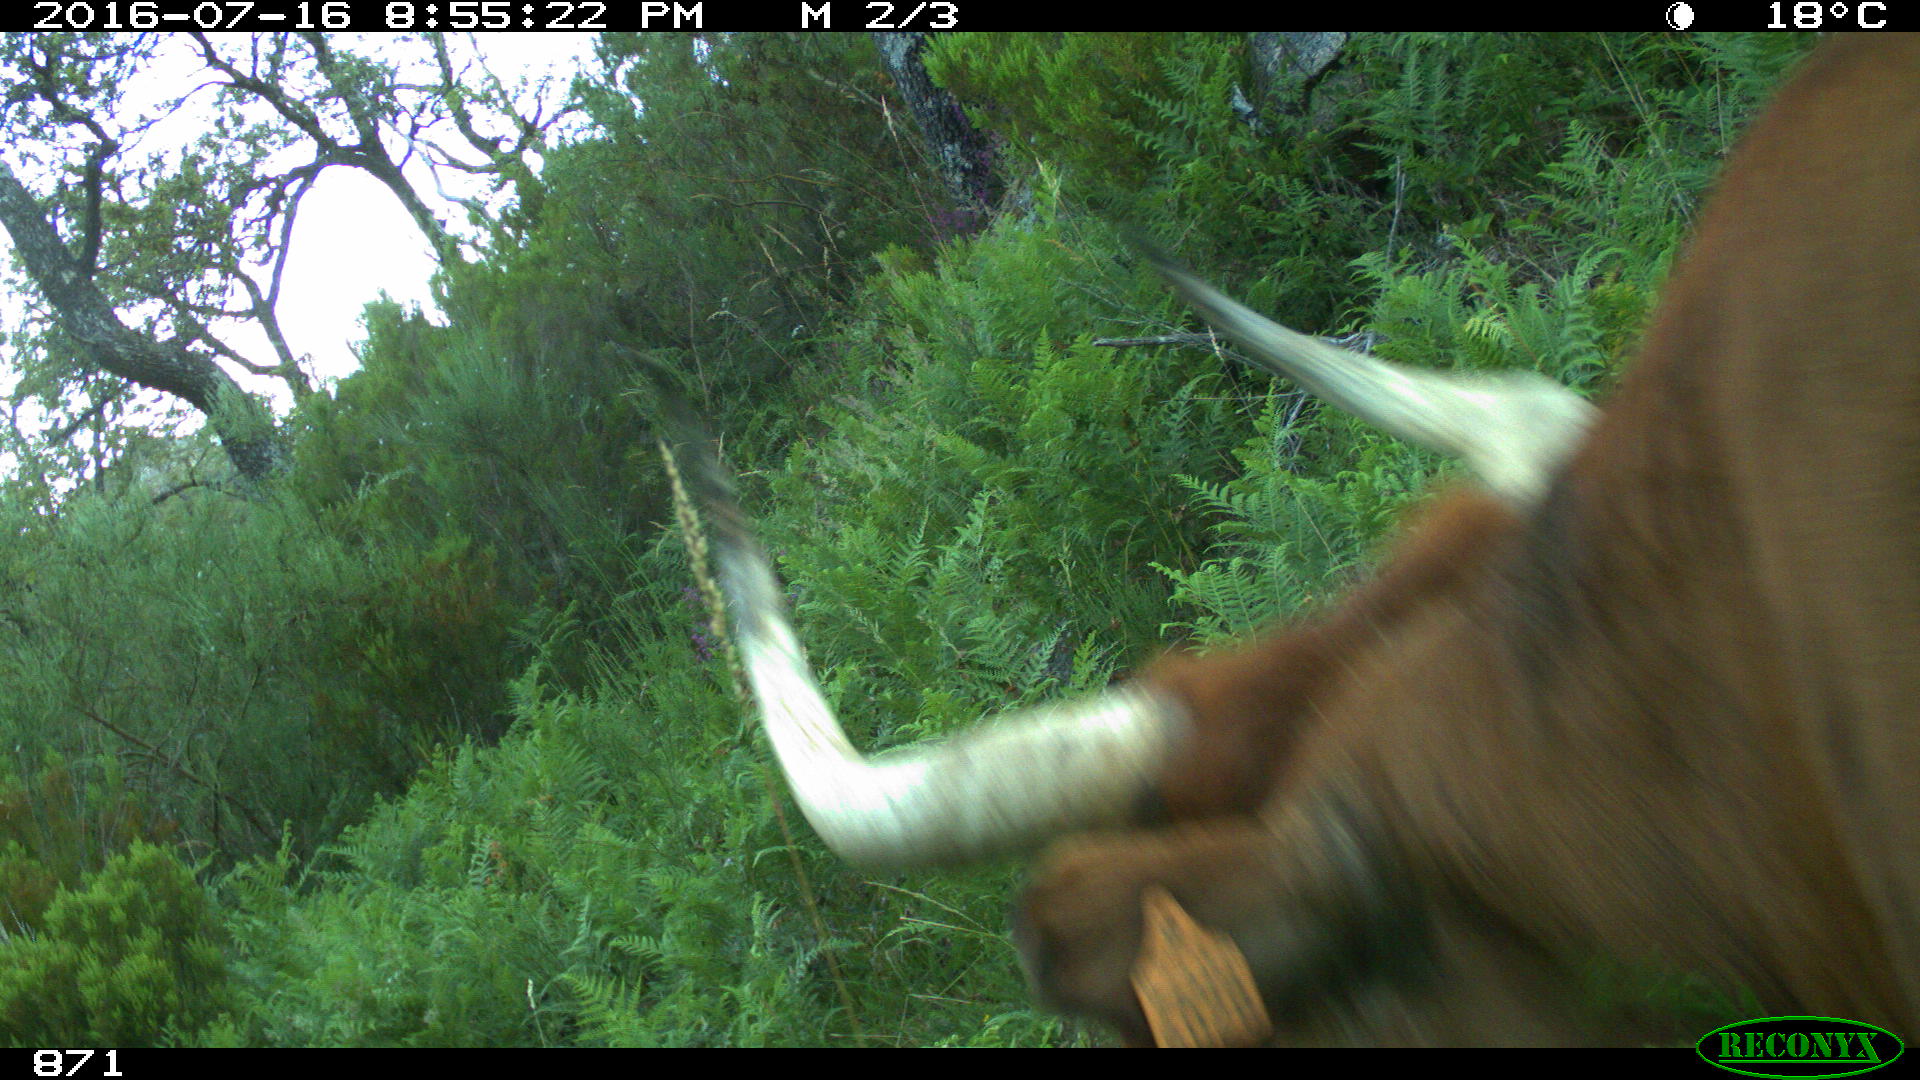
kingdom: Animalia
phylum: Chordata
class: Mammalia
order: Artiodactyla
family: Bovidae
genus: Bos
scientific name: Bos taurus
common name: Domesticated cattle
